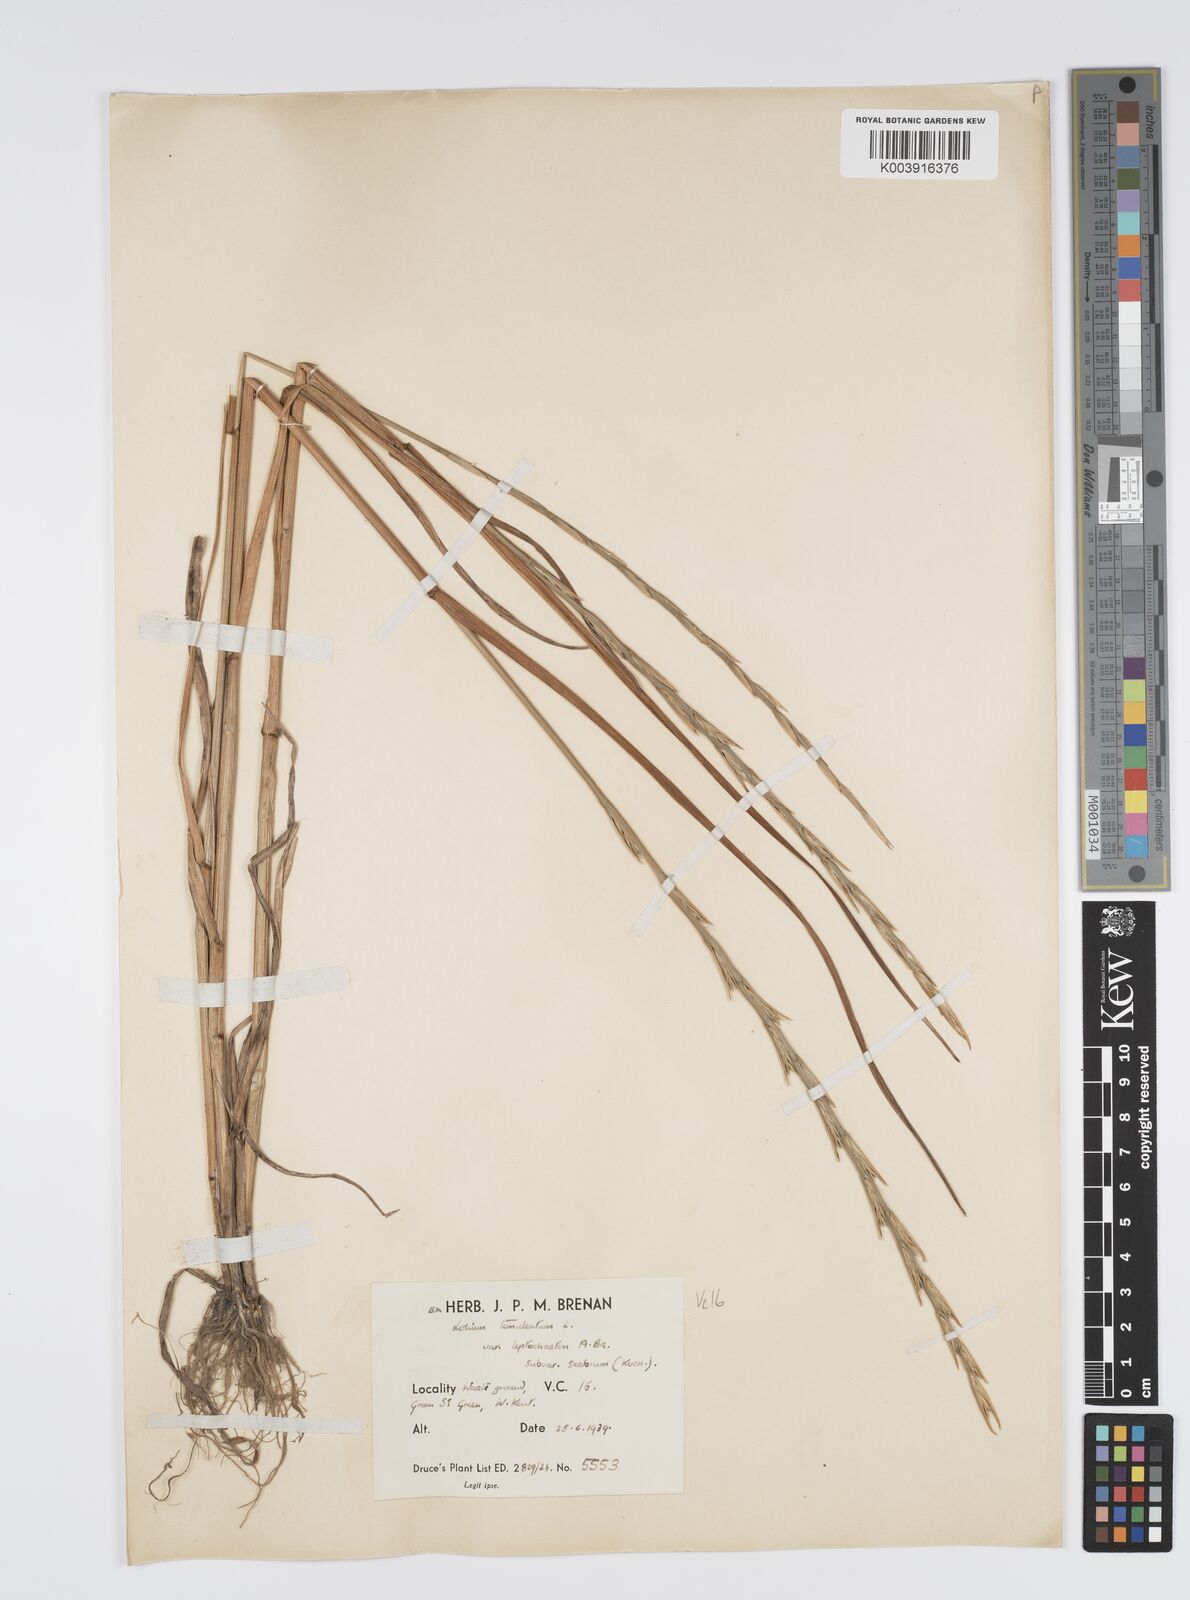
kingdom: Plantae
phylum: Tracheophyta
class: Liliopsida
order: Poales
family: Poaceae
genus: Lolium
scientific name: Lolium temulentum
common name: Darnel
